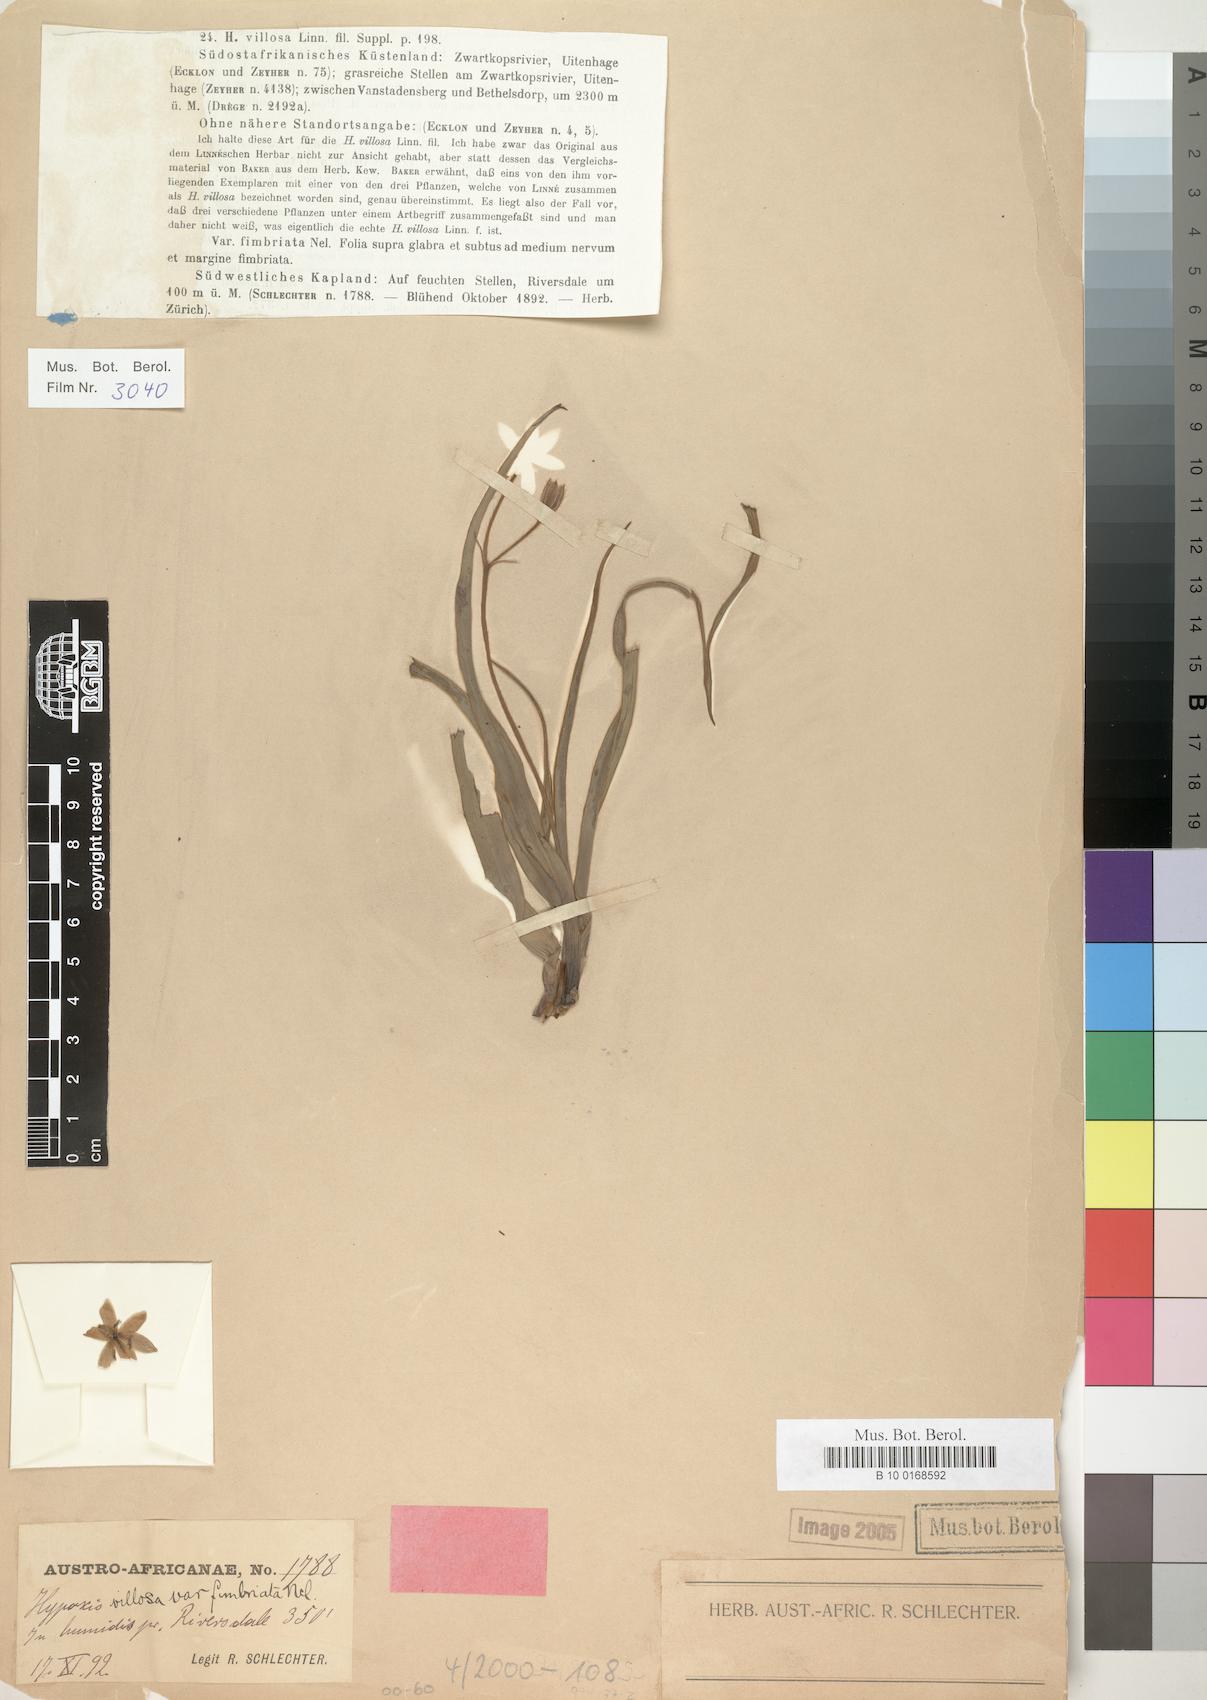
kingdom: Plantae
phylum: Tracheophyta
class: Liliopsida
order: Asparagales
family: Hypoxidaceae
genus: Hypoxis
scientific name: Hypoxis villosa
